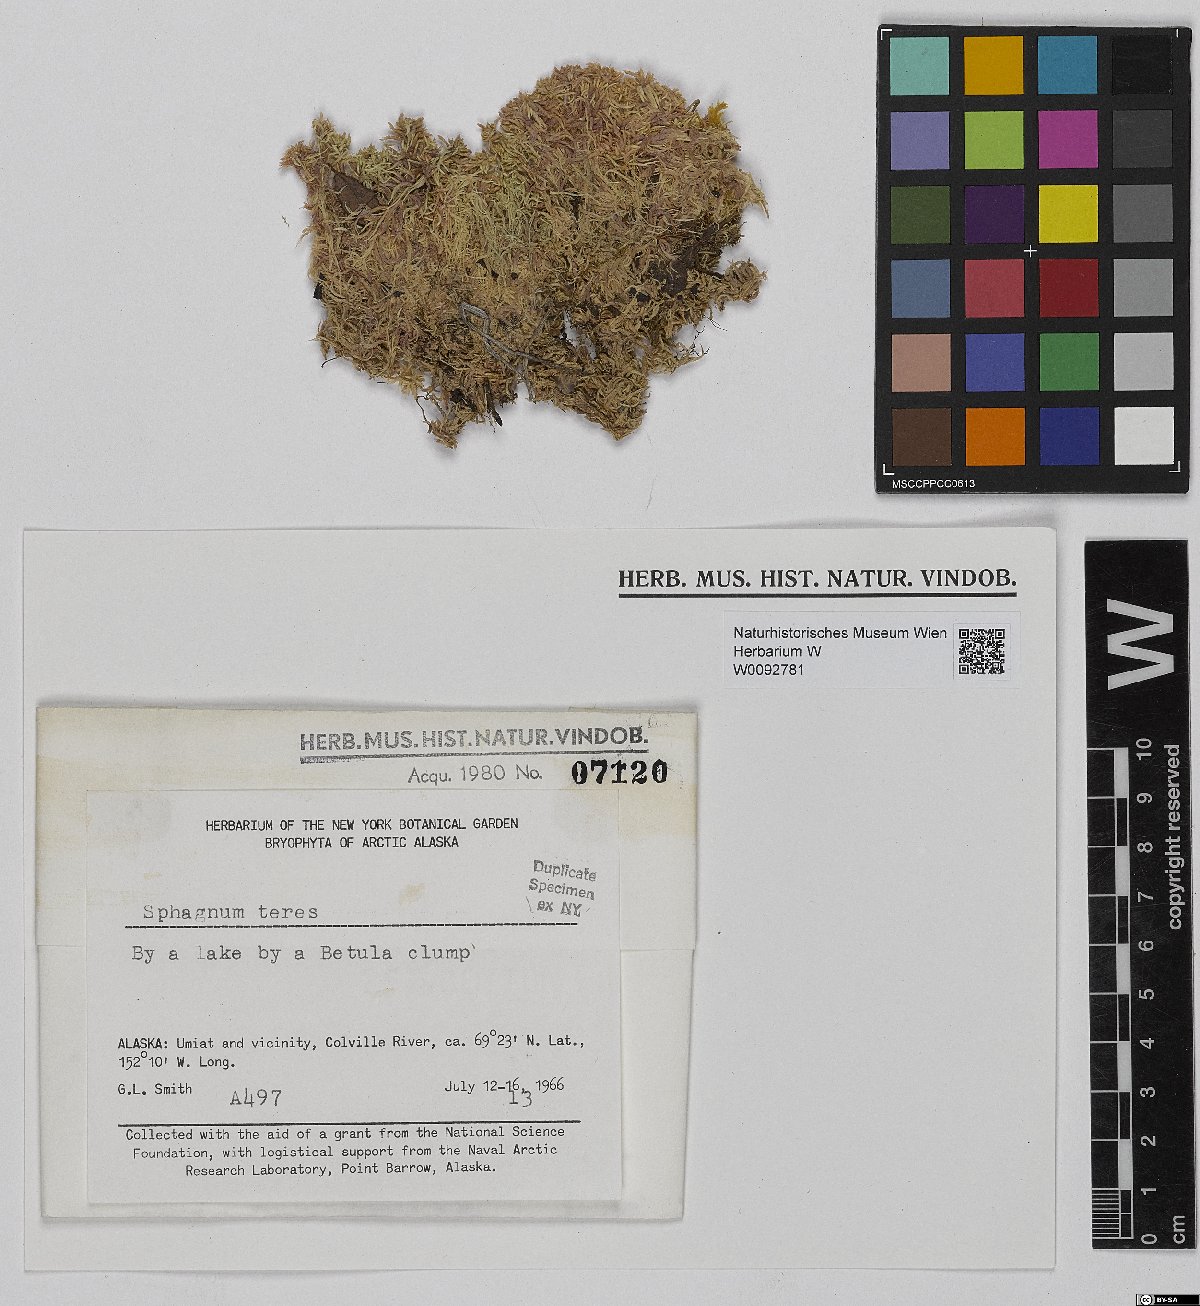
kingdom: Plantae
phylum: Bryophyta
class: Sphagnopsida
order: Sphagnales
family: Sphagnaceae
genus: Sphagnum
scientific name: Sphagnum teres
